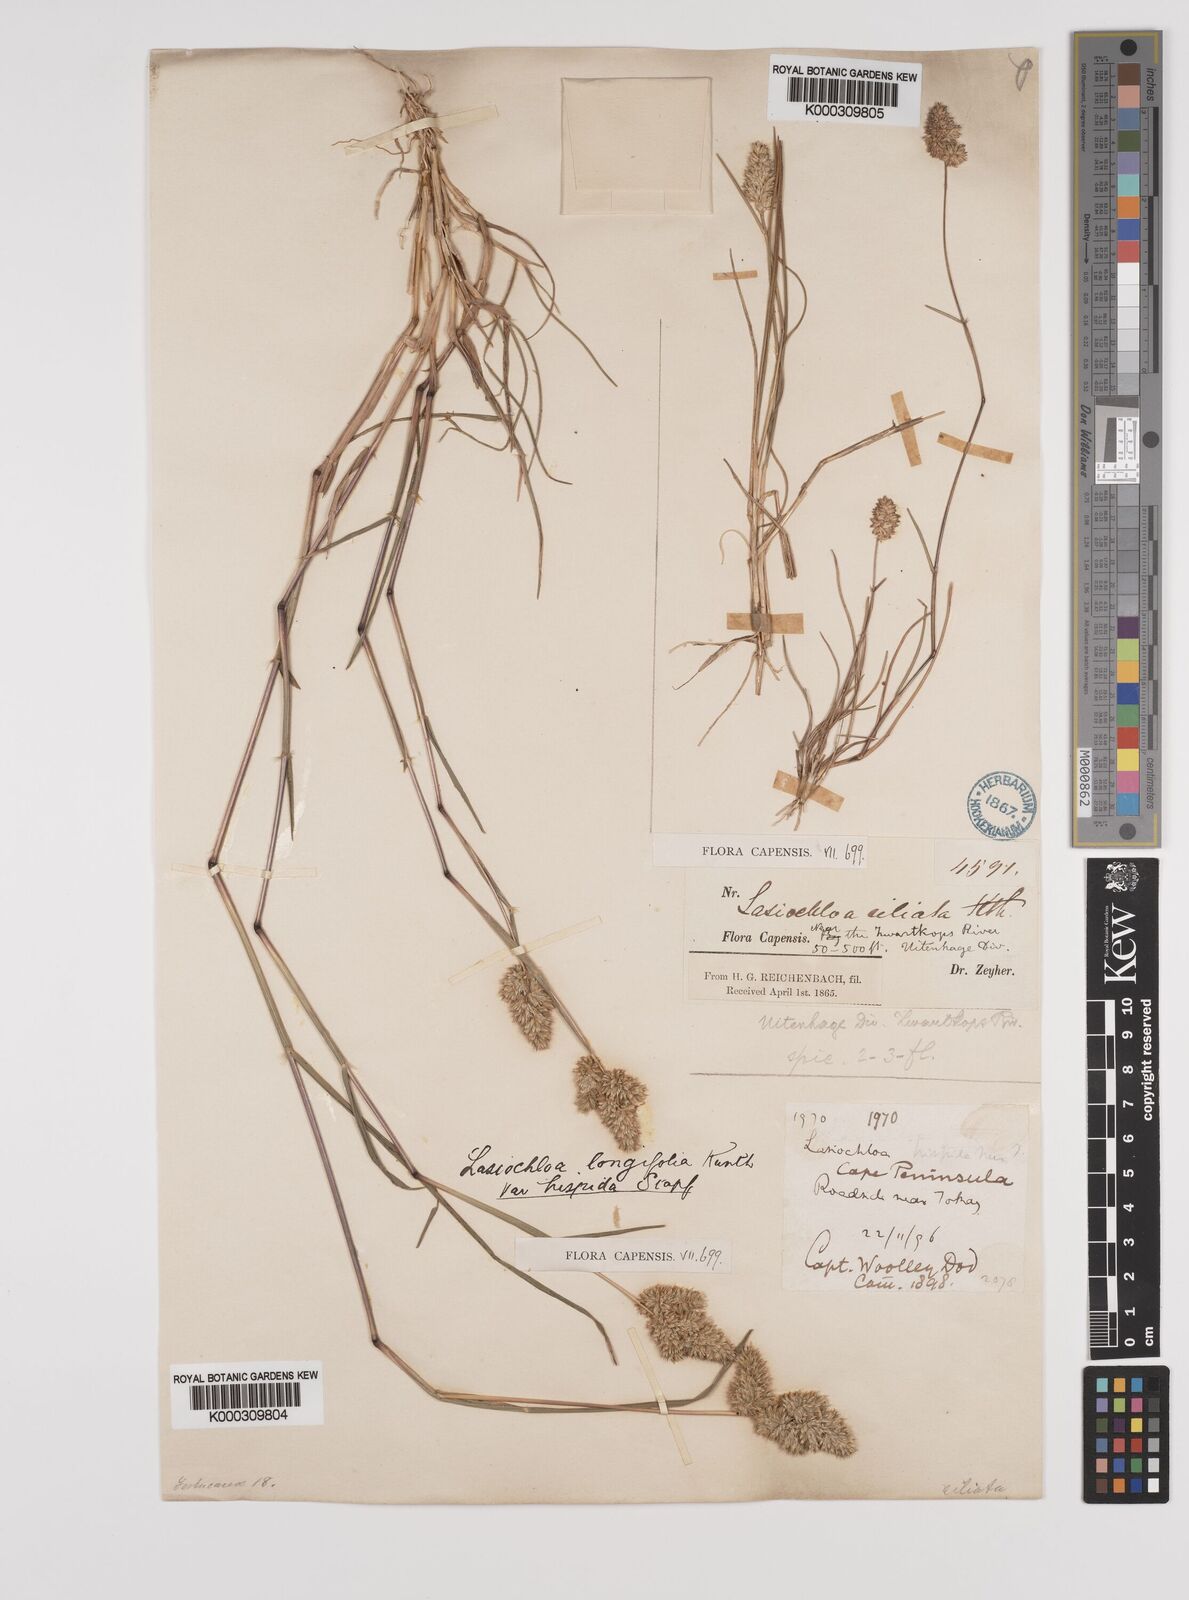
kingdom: Plantae
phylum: Tracheophyta
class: Liliopsida
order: Poales
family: Poaceae
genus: Tribolium
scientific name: Tribolium hispidum
